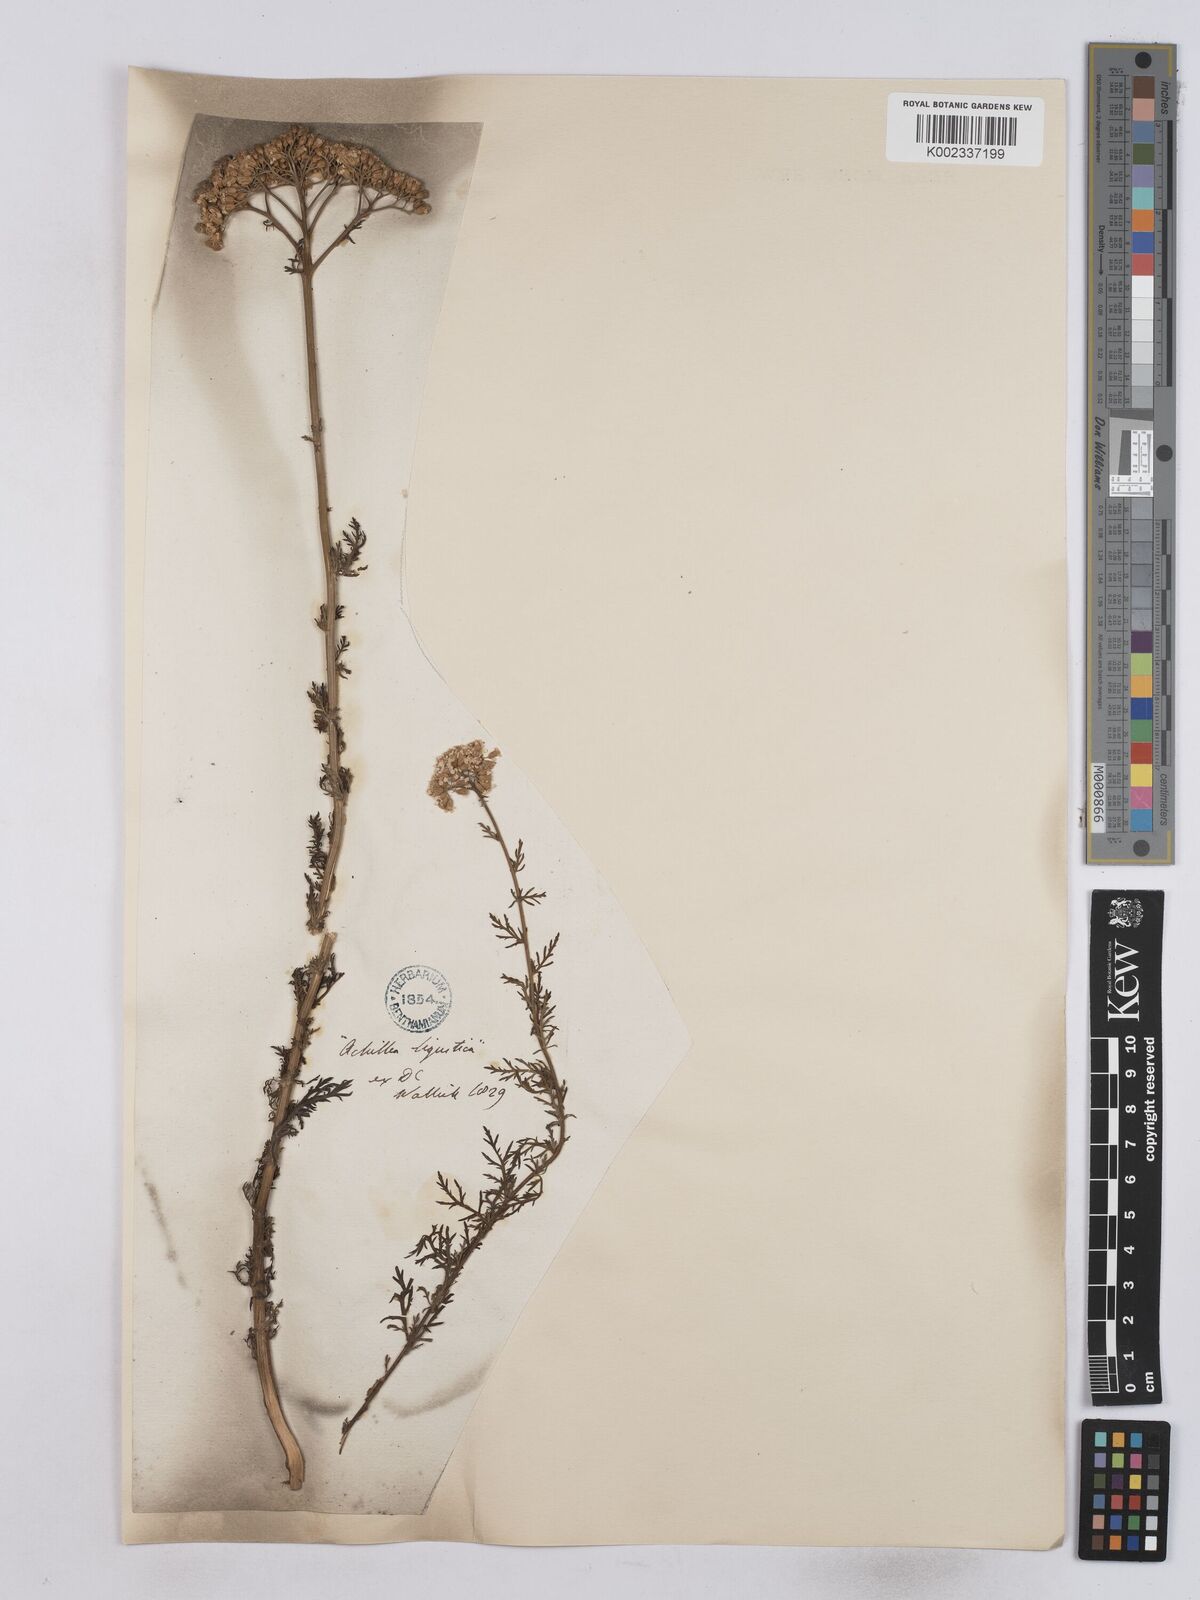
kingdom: Plantae
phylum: Tracheophyta
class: Magnoliopsida
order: Asterales
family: Asteraceae
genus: Achillea
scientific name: Achillea ligustica
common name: Southern yarrow
